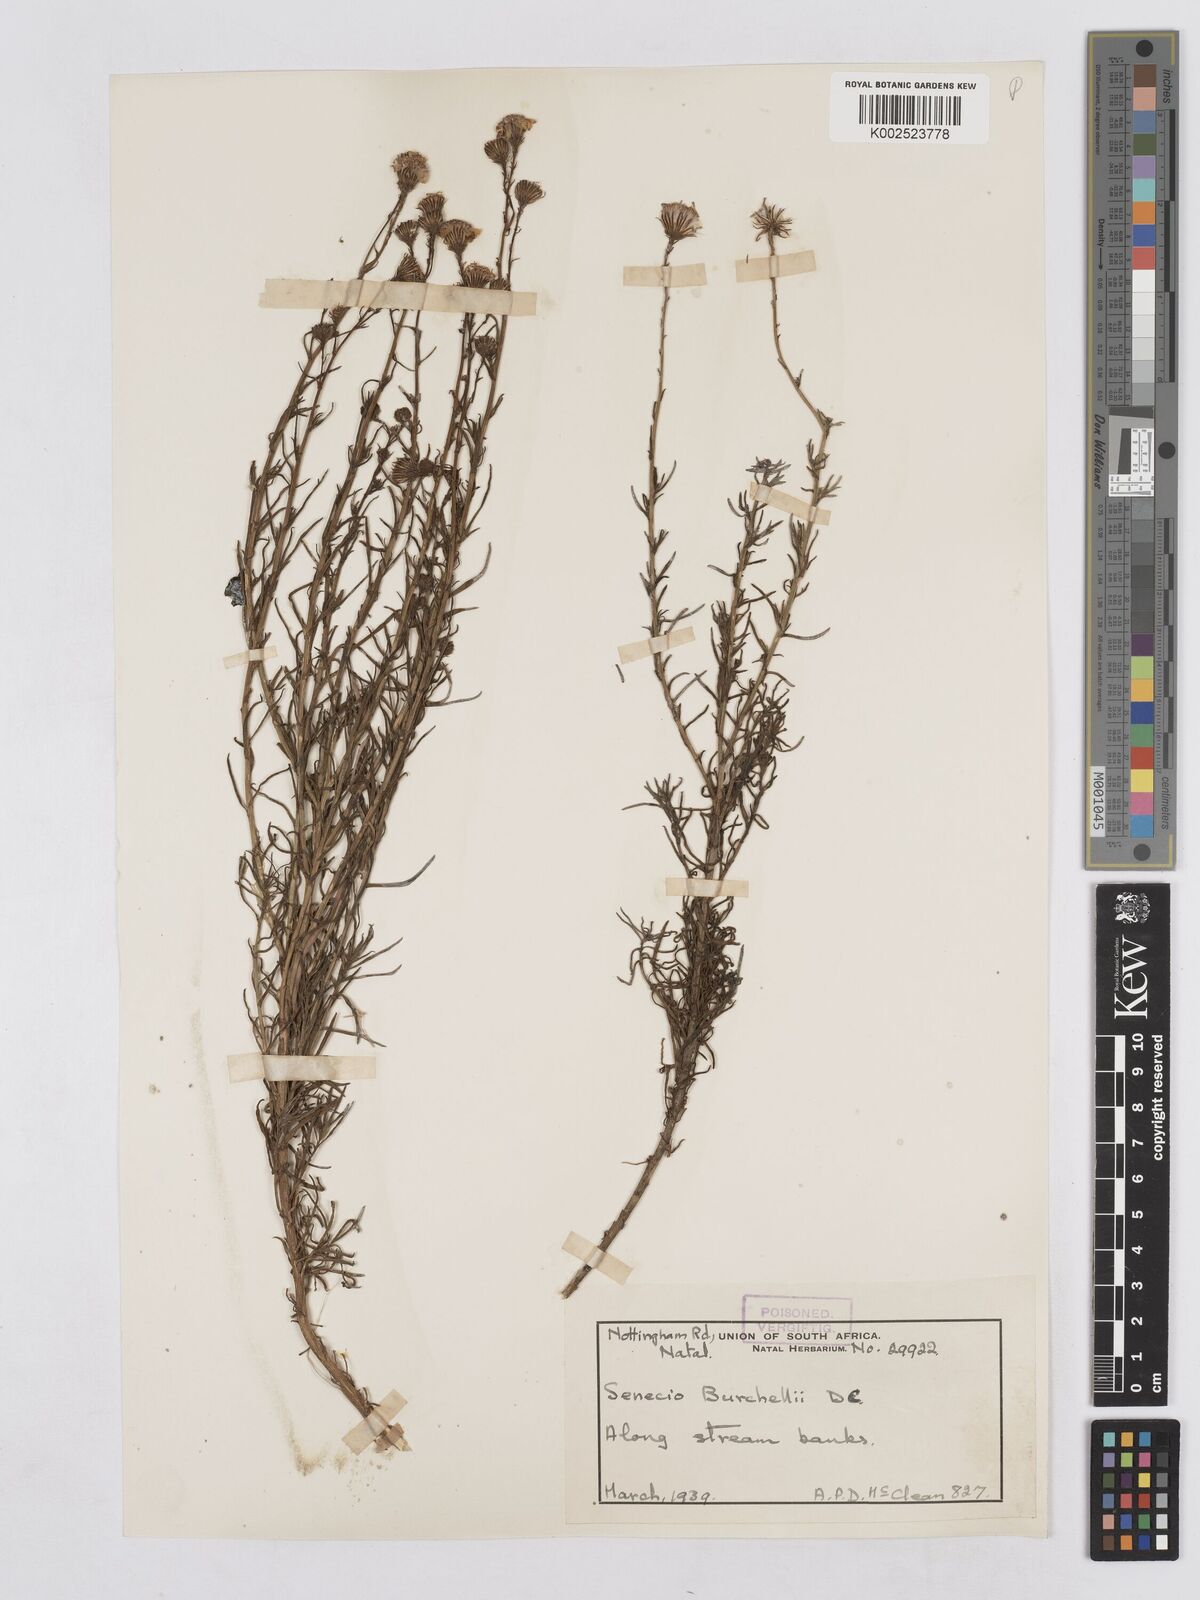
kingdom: Plantae
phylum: Tracheophyta
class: Magnoliopsida
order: Asterales
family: Asteraceae
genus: Senecio
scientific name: Senecio harveyanus
